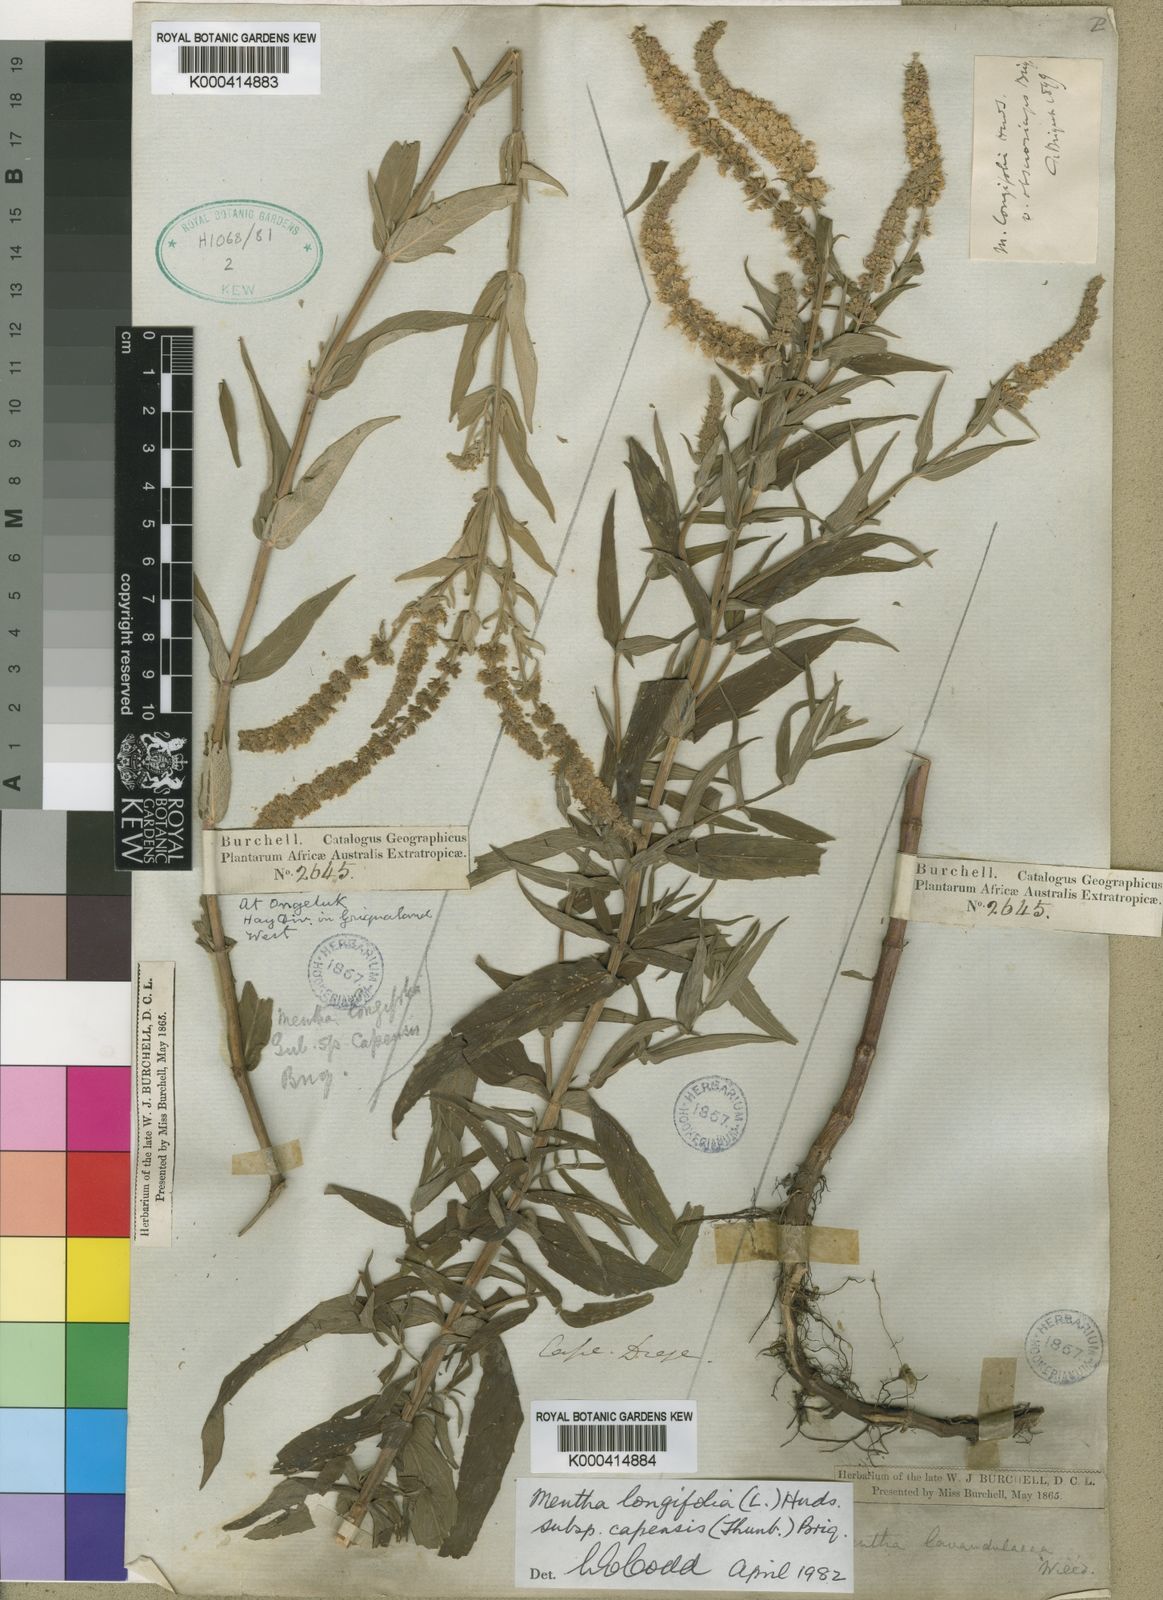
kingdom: Plantae
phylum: Tracheophyta
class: Magnoliopsida
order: Lamiales
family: Lamiaceae
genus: Mentha
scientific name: Mentha
